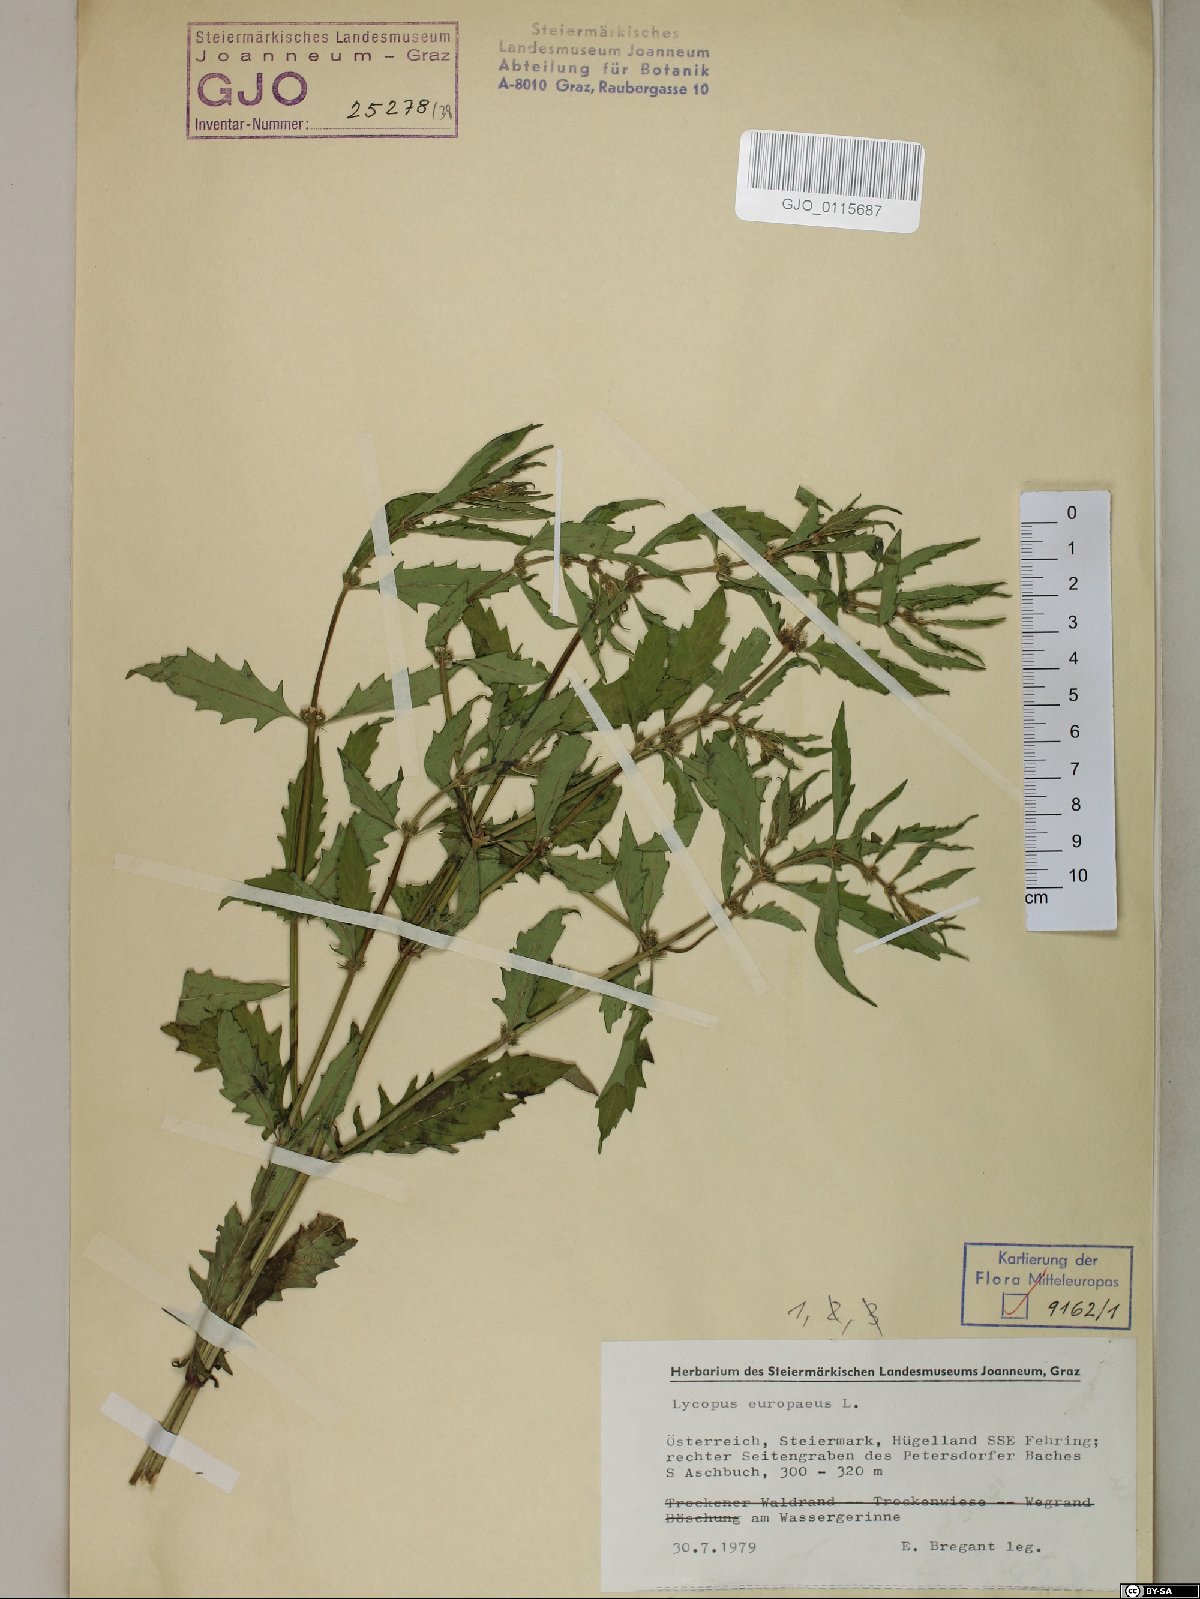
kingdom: Plantae
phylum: Tracheophyta
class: Magnoliopsida
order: Lamiales
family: Lamiaceae
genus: Lycopus
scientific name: Lycopus europaeus
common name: European bugleweed
